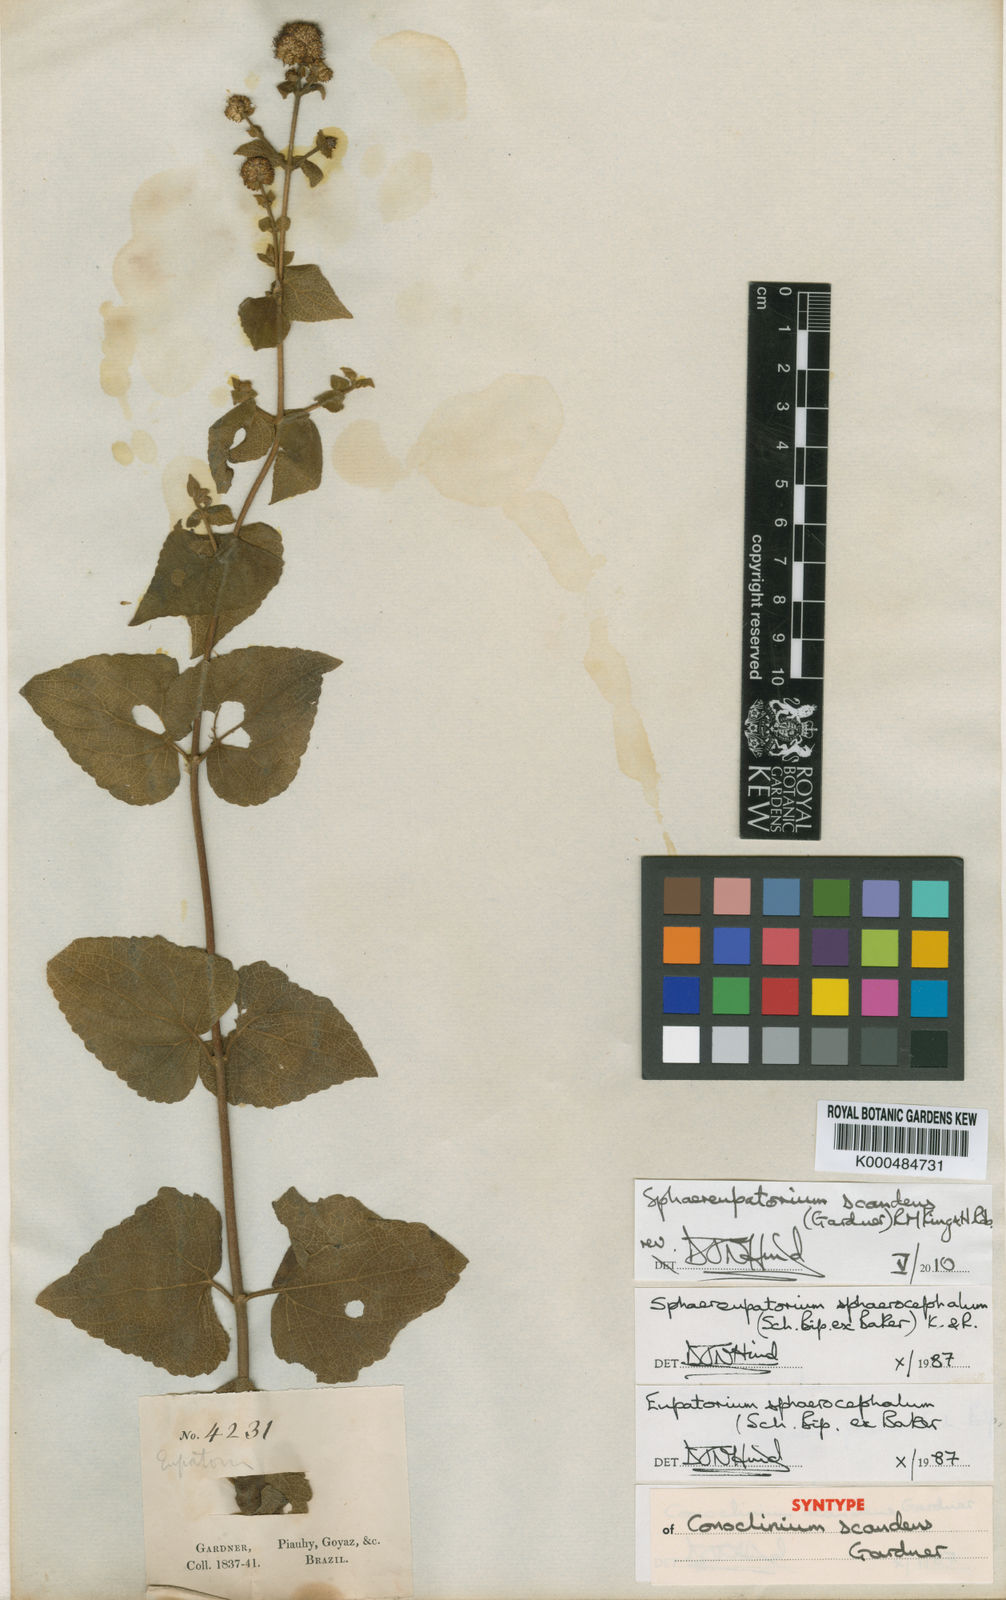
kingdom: Plantae
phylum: Tracheophyta
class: Magnoliopsida
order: Asterales
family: Asteraceae
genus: Sphaereupatorium
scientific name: Sphaereupatorium scandens
